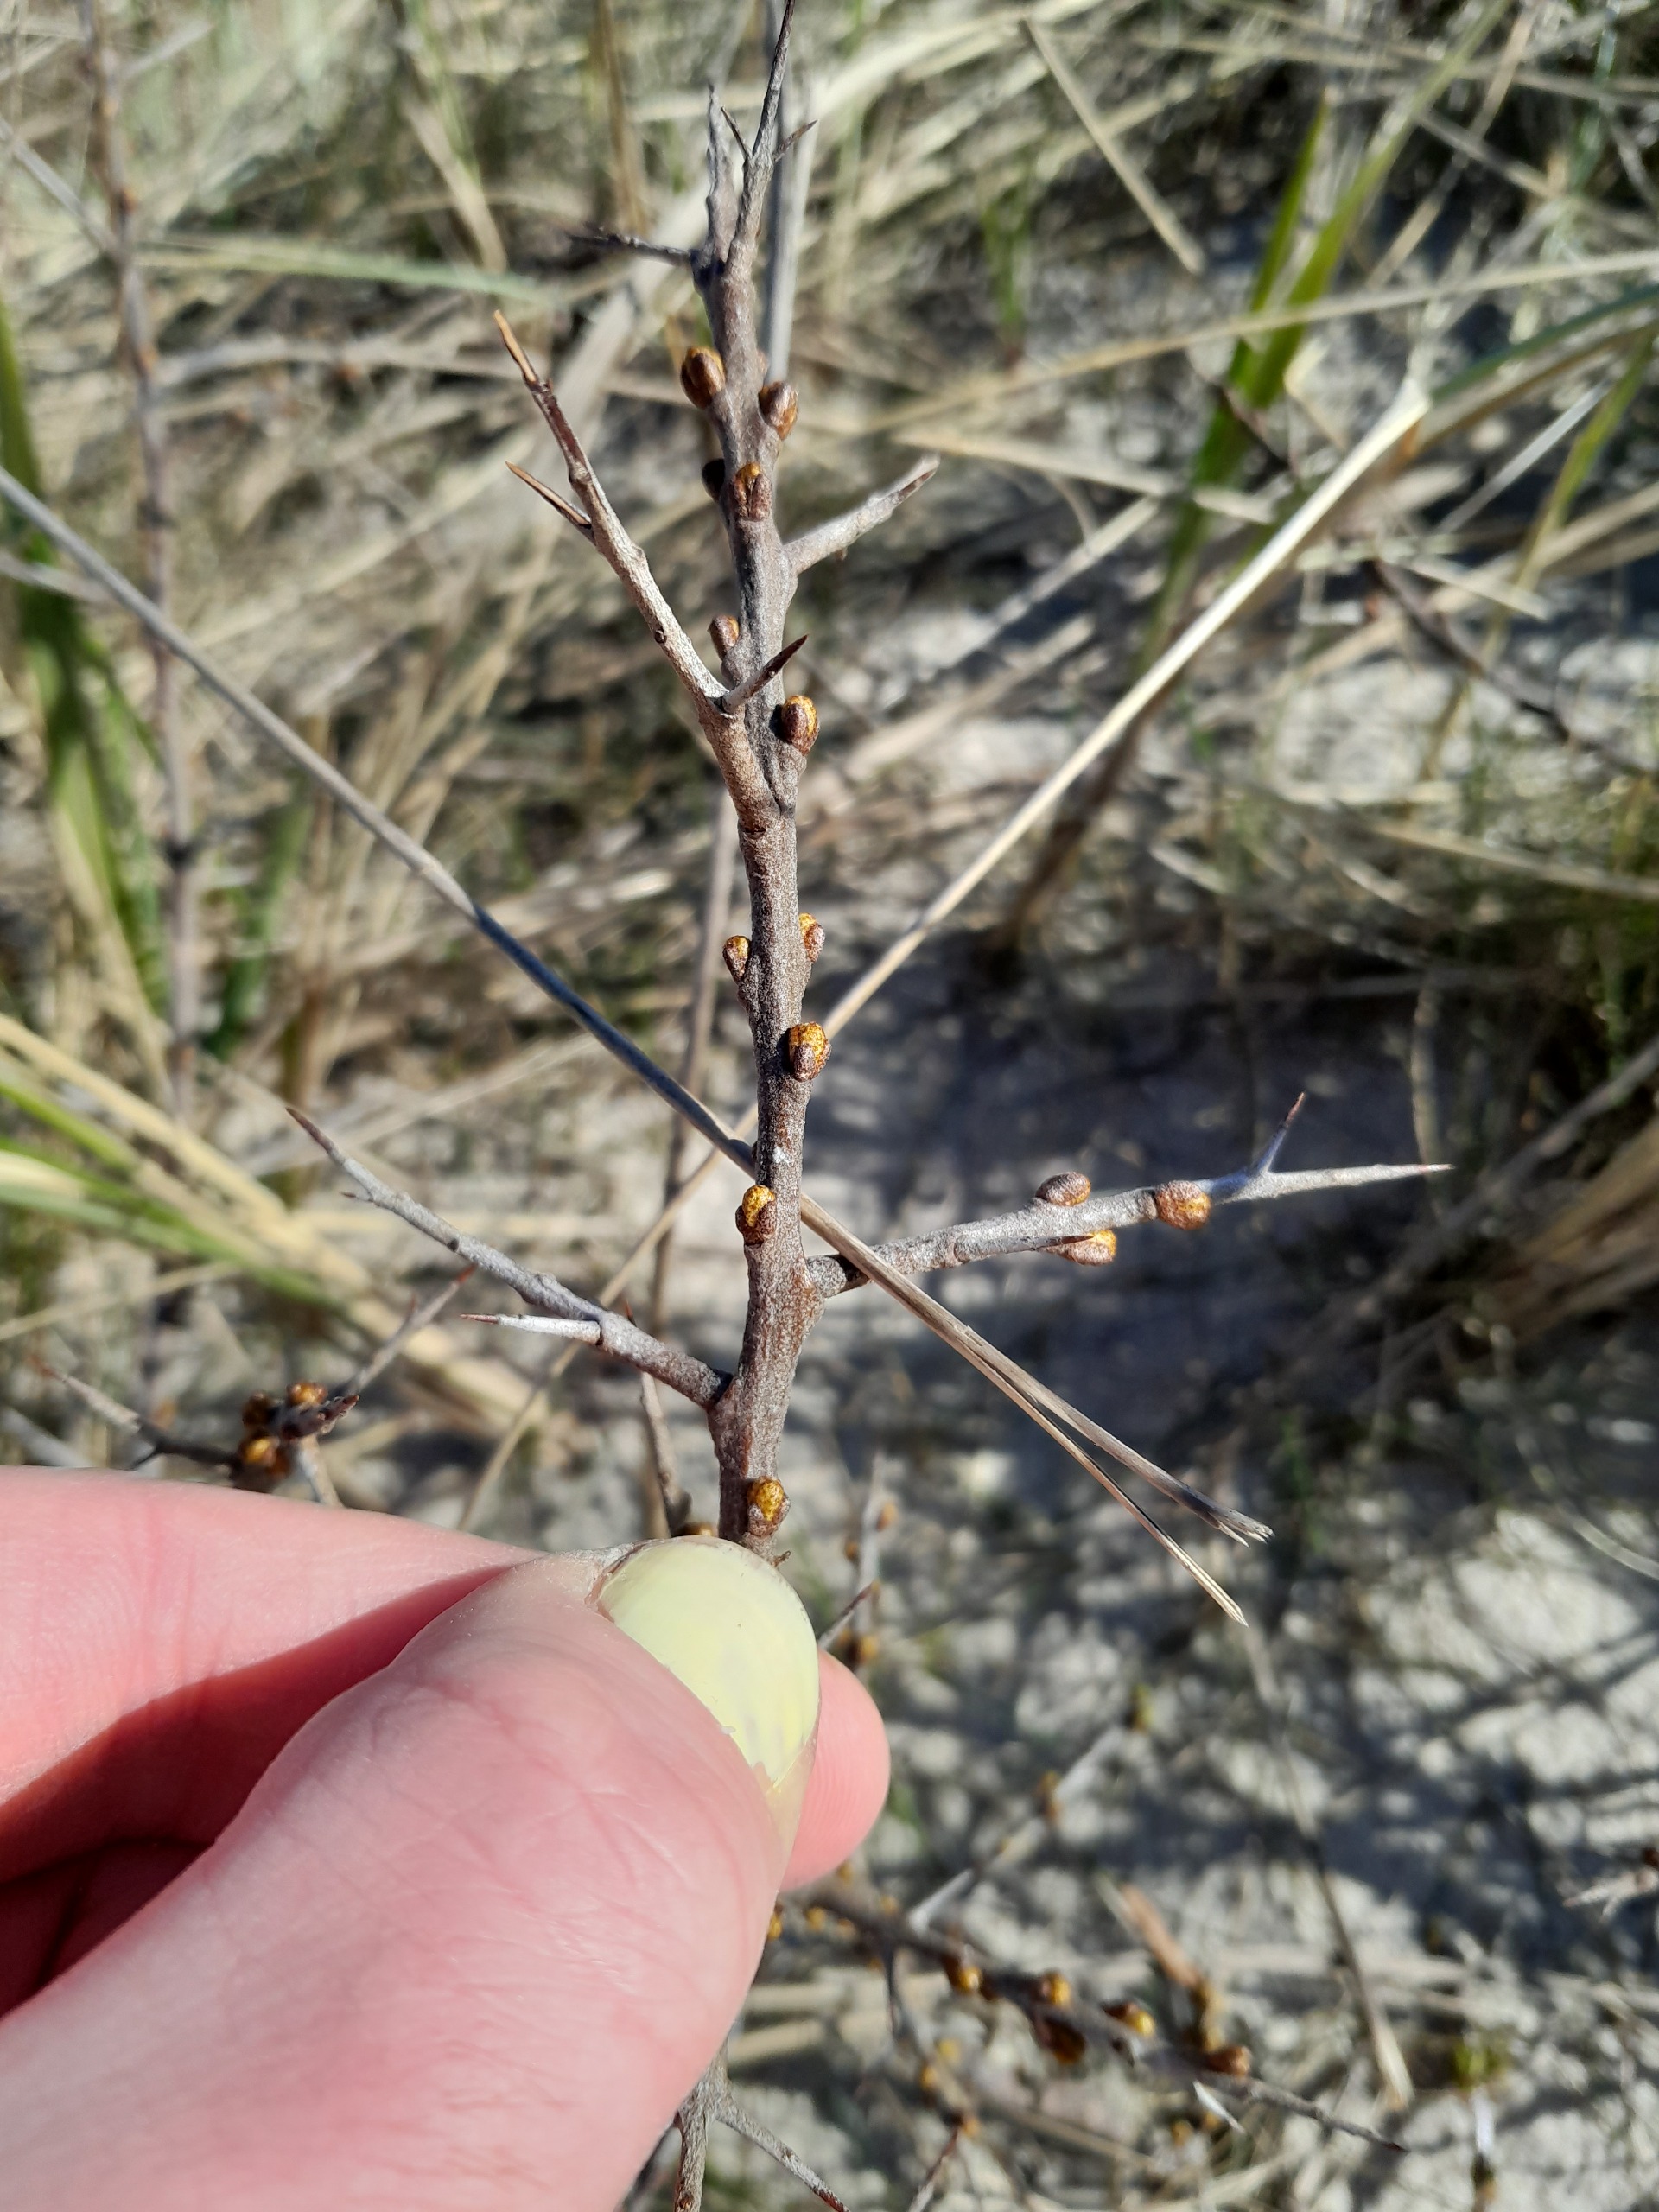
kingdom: Plantae
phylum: Tracheophyta
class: Magnoliopsida
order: Rosales
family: Elaeagnaceae
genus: Hippophae
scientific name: Hippophae rhamnoides
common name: Havtorn
